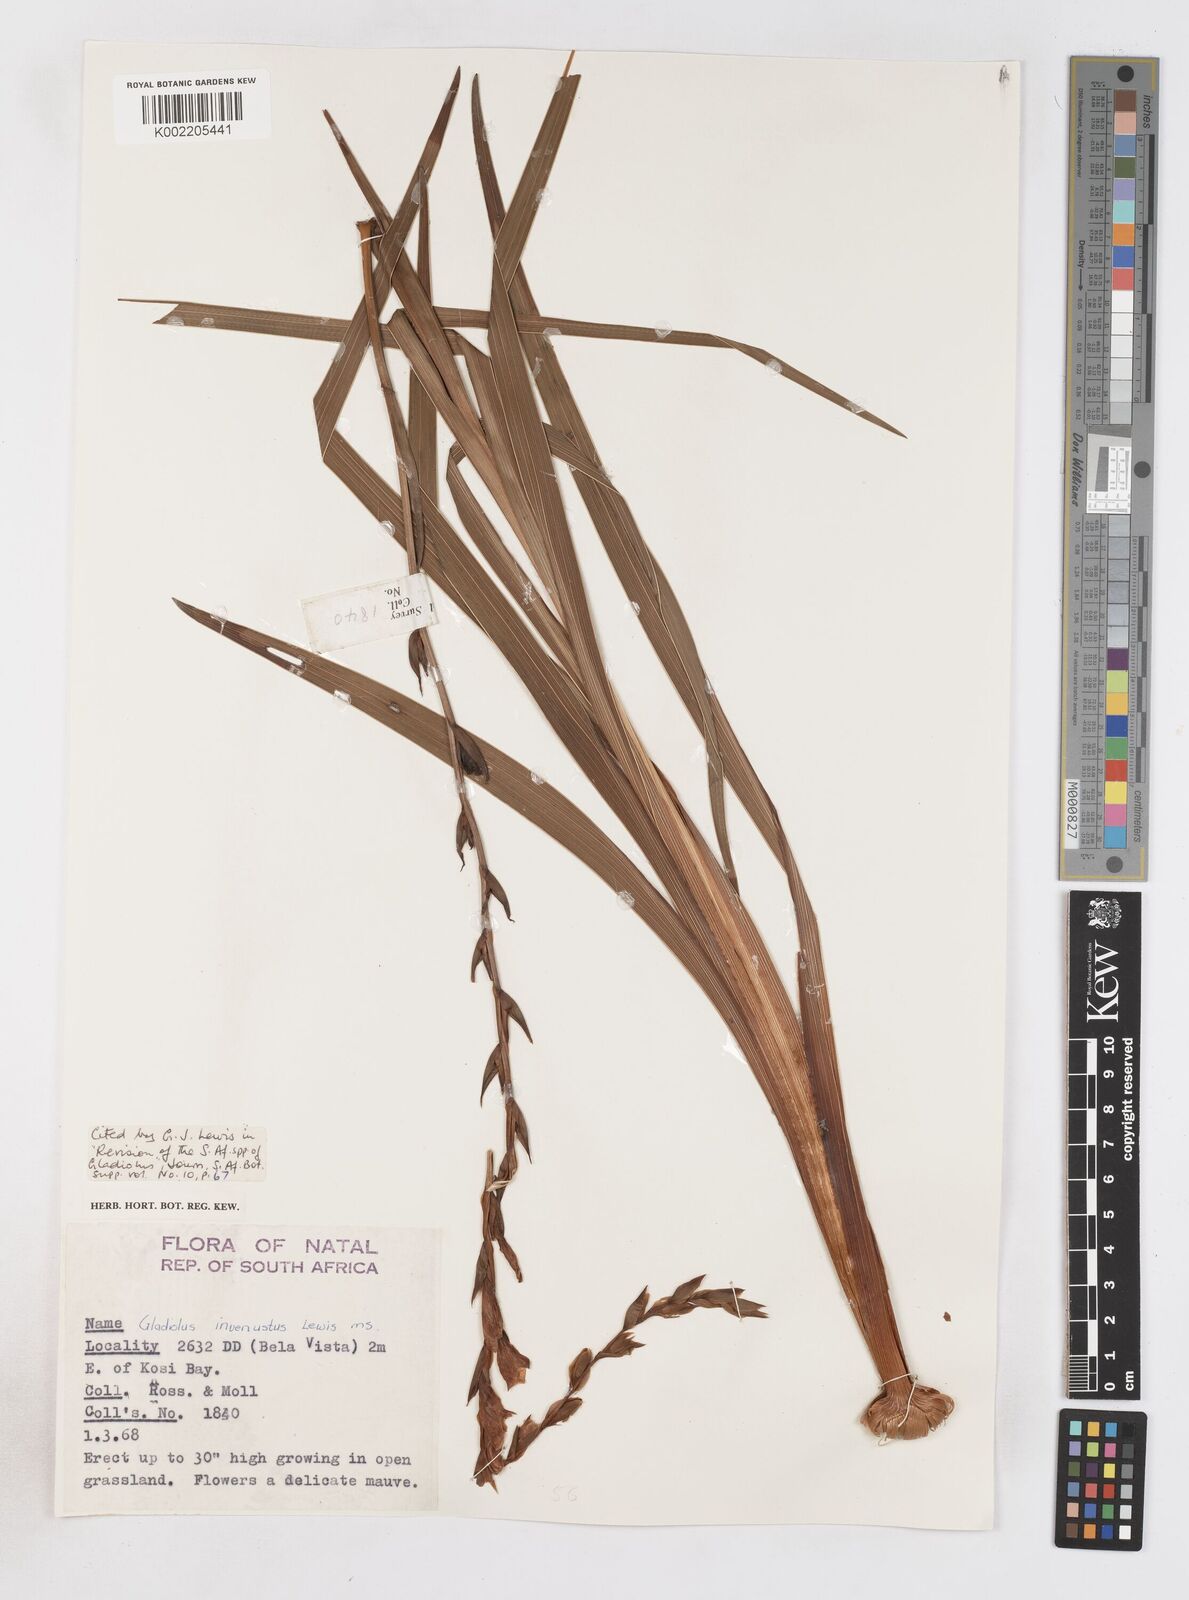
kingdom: Plantae
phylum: Tracheophyta
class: Liliopsida
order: Asparagales
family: Iridaceae
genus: Gladiolus
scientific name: Gladiolus densiflorus
